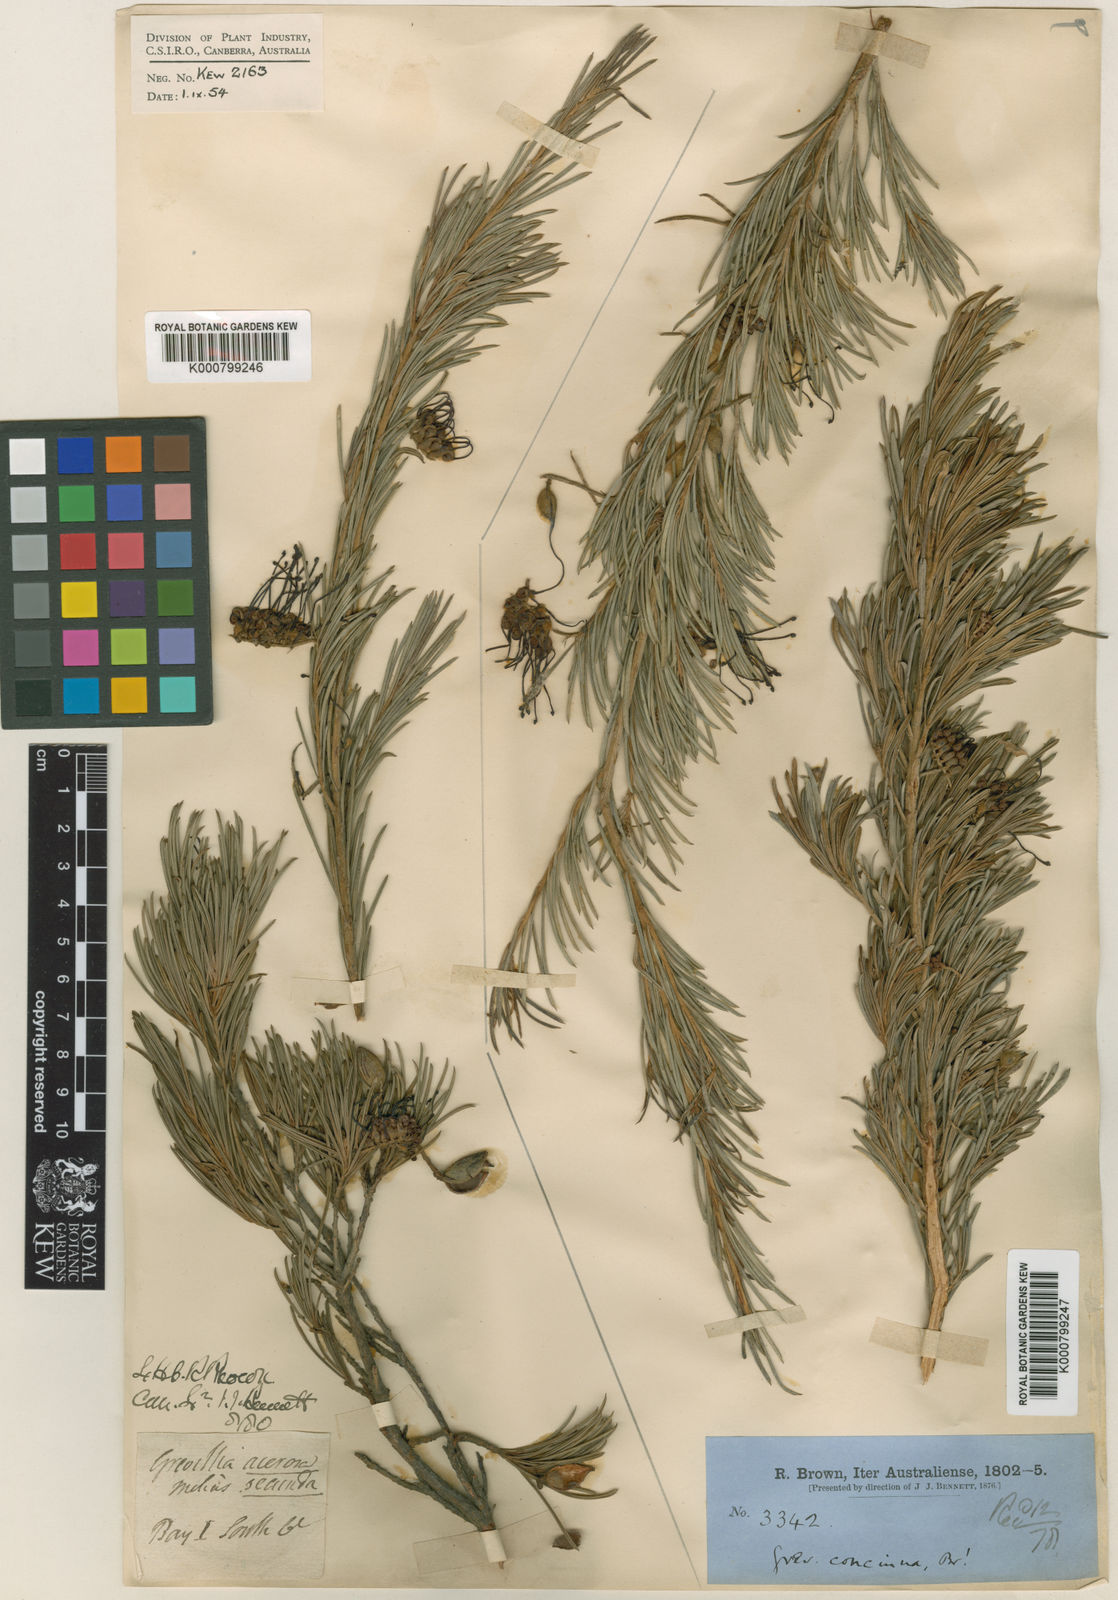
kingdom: Plantae
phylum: Tracheophyta
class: Magnoliopsida
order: Proteales
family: Proteaceae
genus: Grevillea
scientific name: Grevillea concinna
